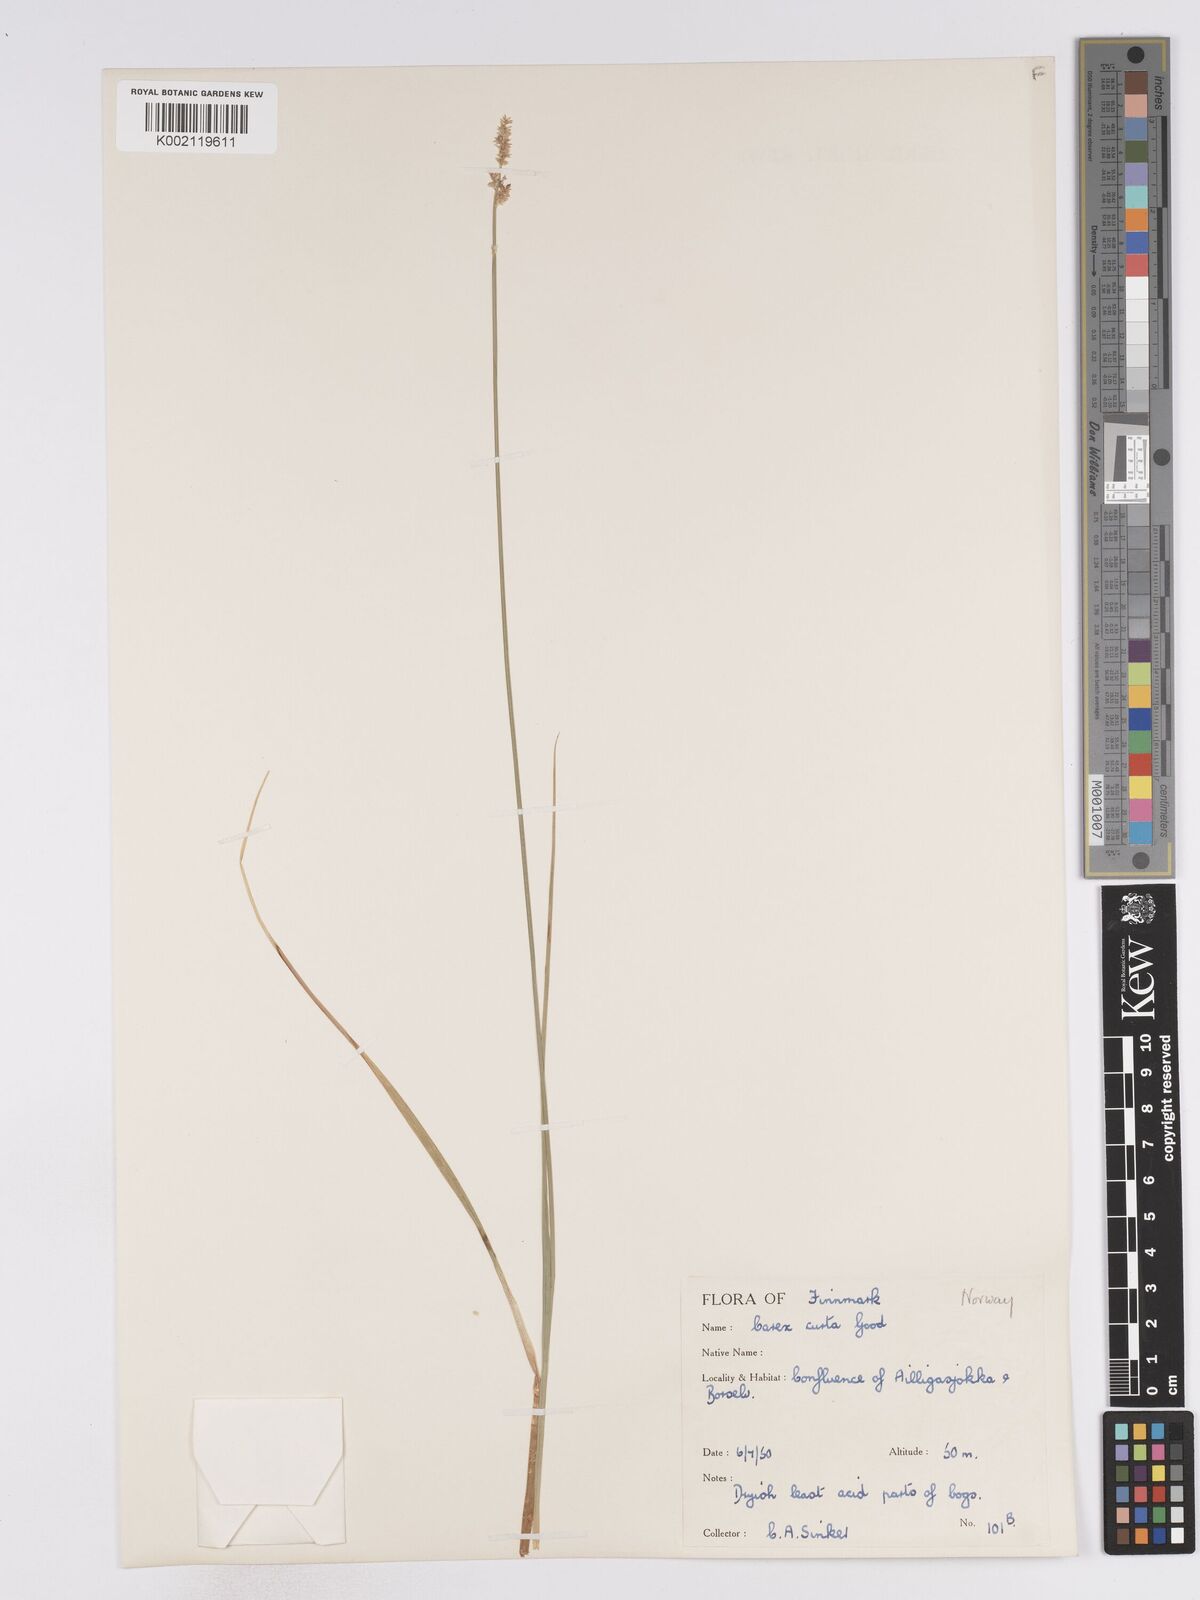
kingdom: Plantae
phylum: Tracheophyta
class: Liliopsida
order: Poales
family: Cyperaceae
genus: Carex
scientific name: Carex curta
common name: White sedge
